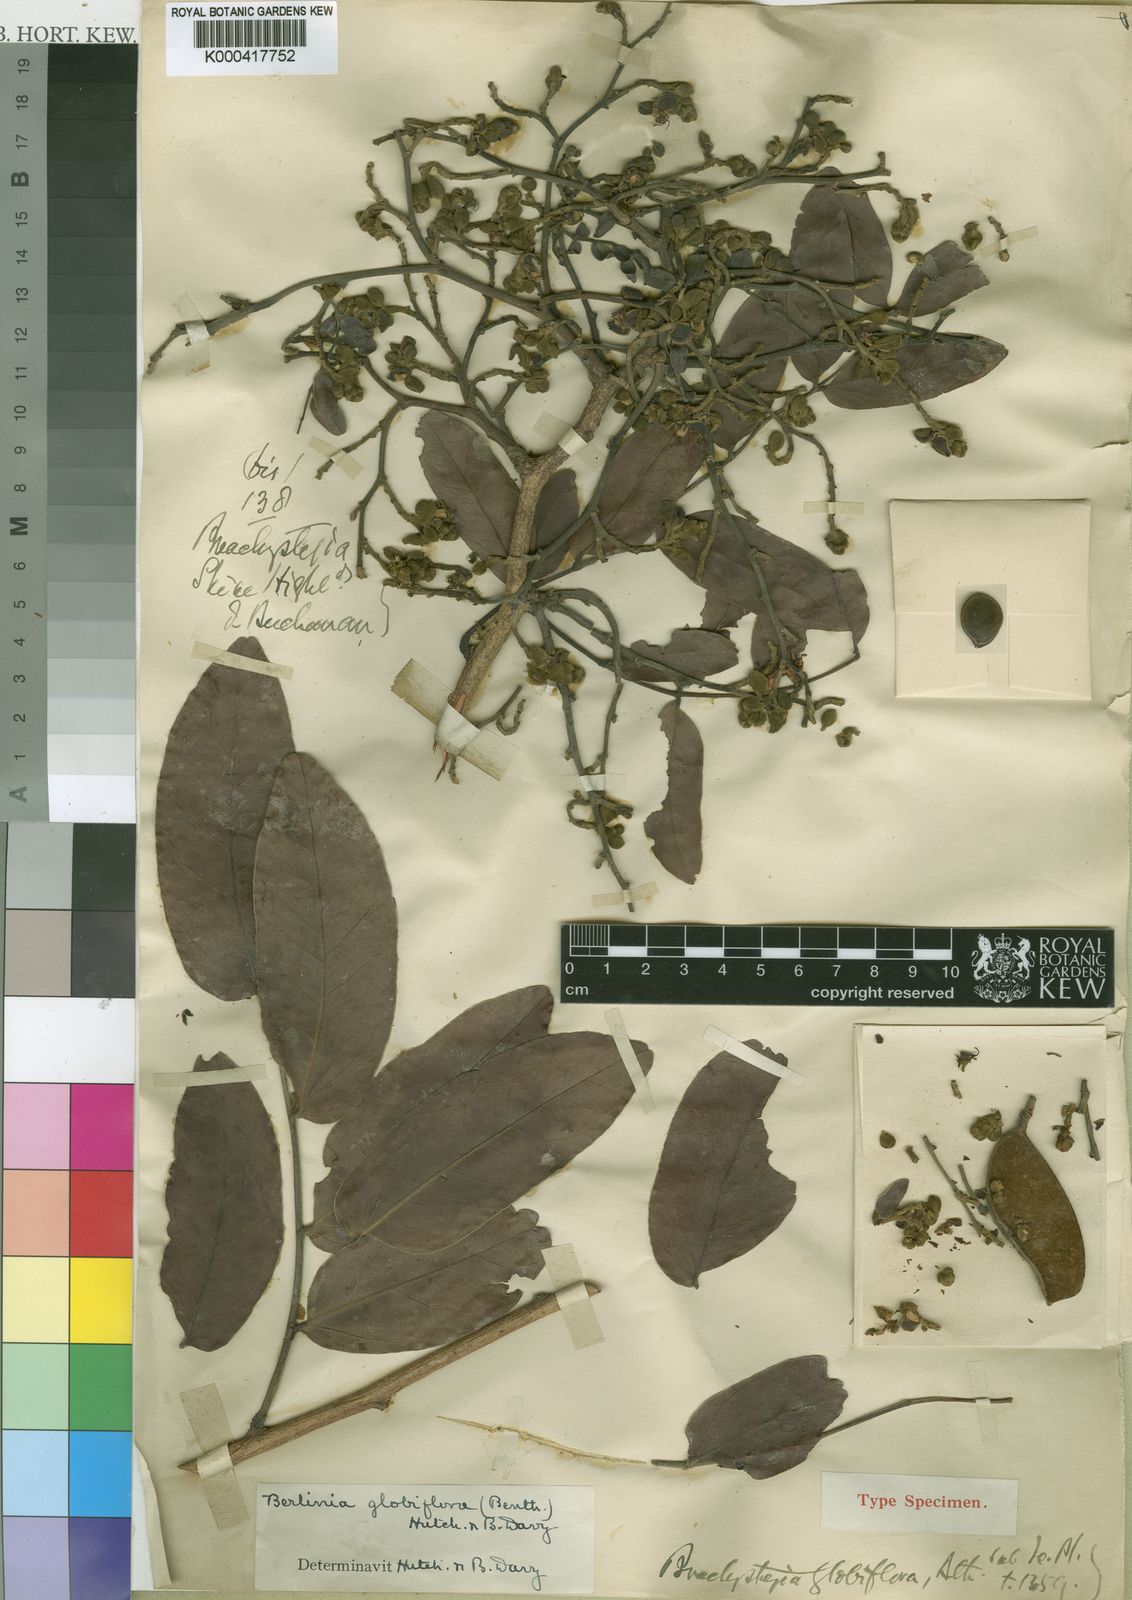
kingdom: Plantae
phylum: Tracheophyta
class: Magnoliopsida
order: Fabales
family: Fabaceae
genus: Julbernardia
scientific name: Julbernardia globiflora
